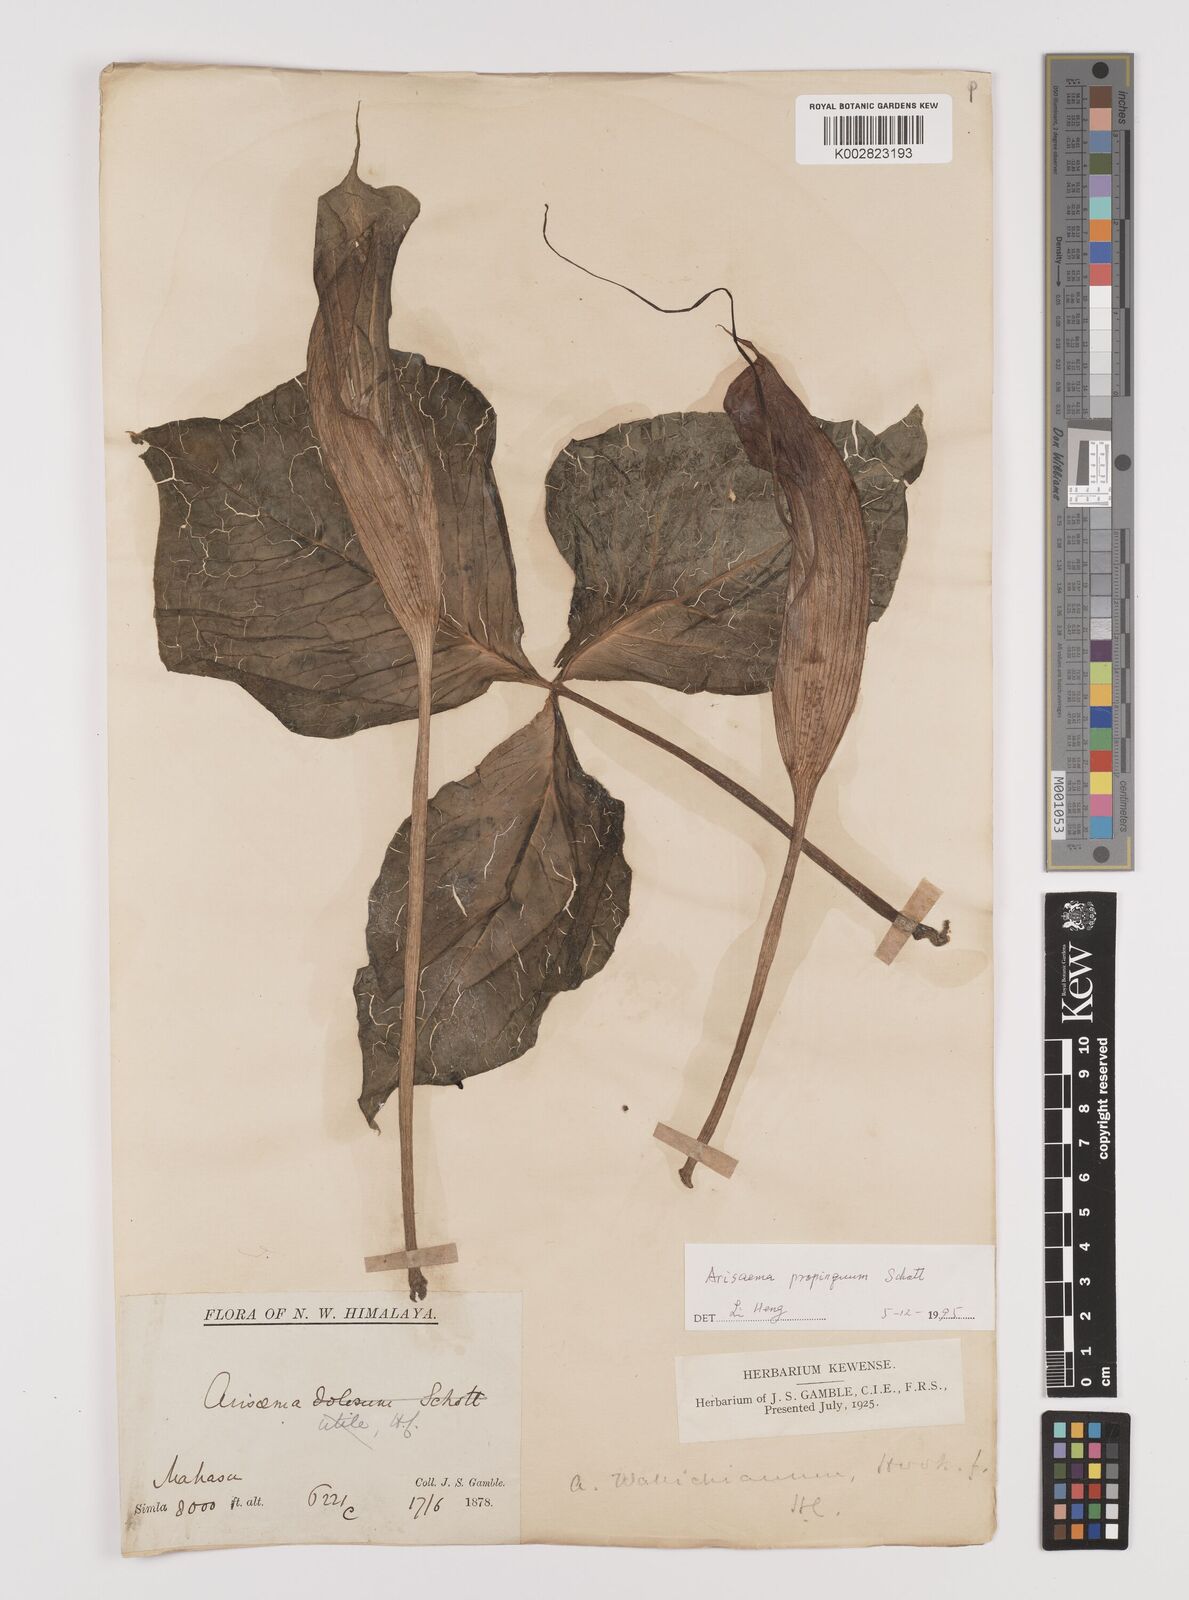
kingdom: Plantae
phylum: Tracheophyta
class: Liliopsida
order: Alismatales
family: Araceae
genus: Arisaema
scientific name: Arisaema propinquum
